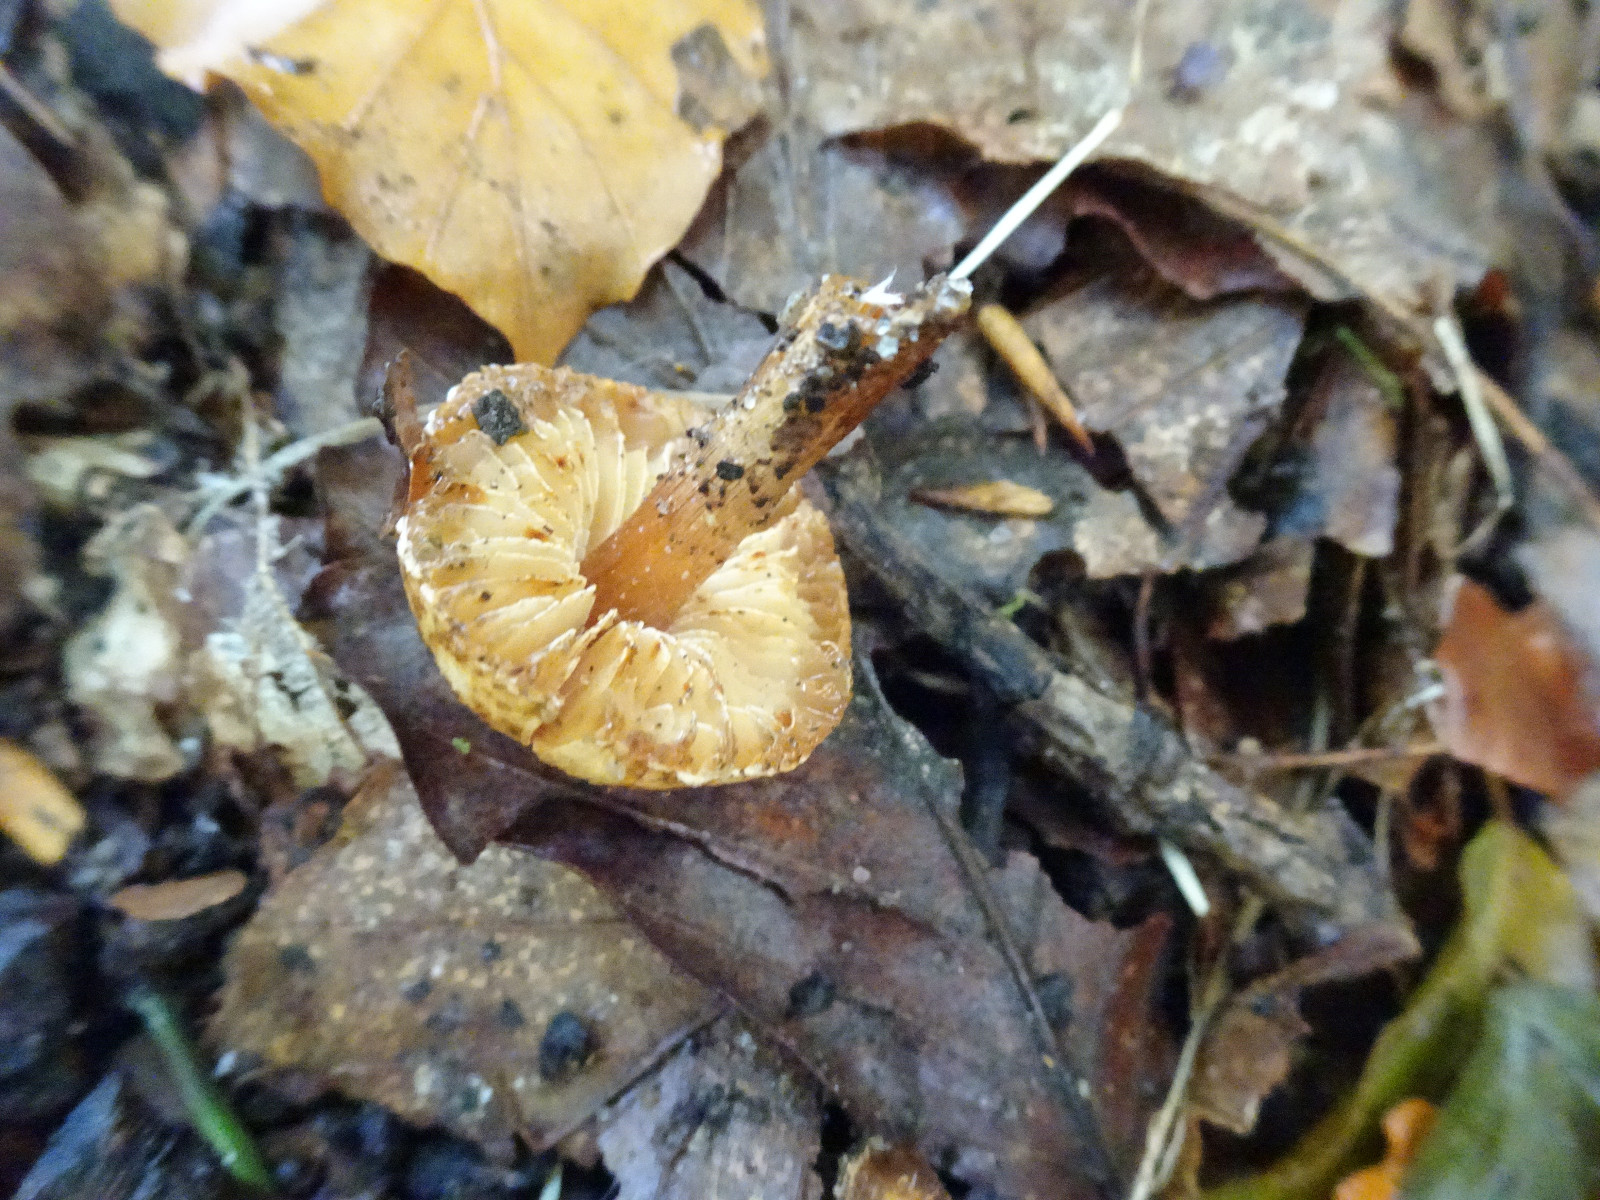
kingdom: Fungi
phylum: Basidiomycota
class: Agaricomycetes
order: Agaricales
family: Agaricaceae
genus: Lepiota
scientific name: Lepiota
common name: parasolhat
